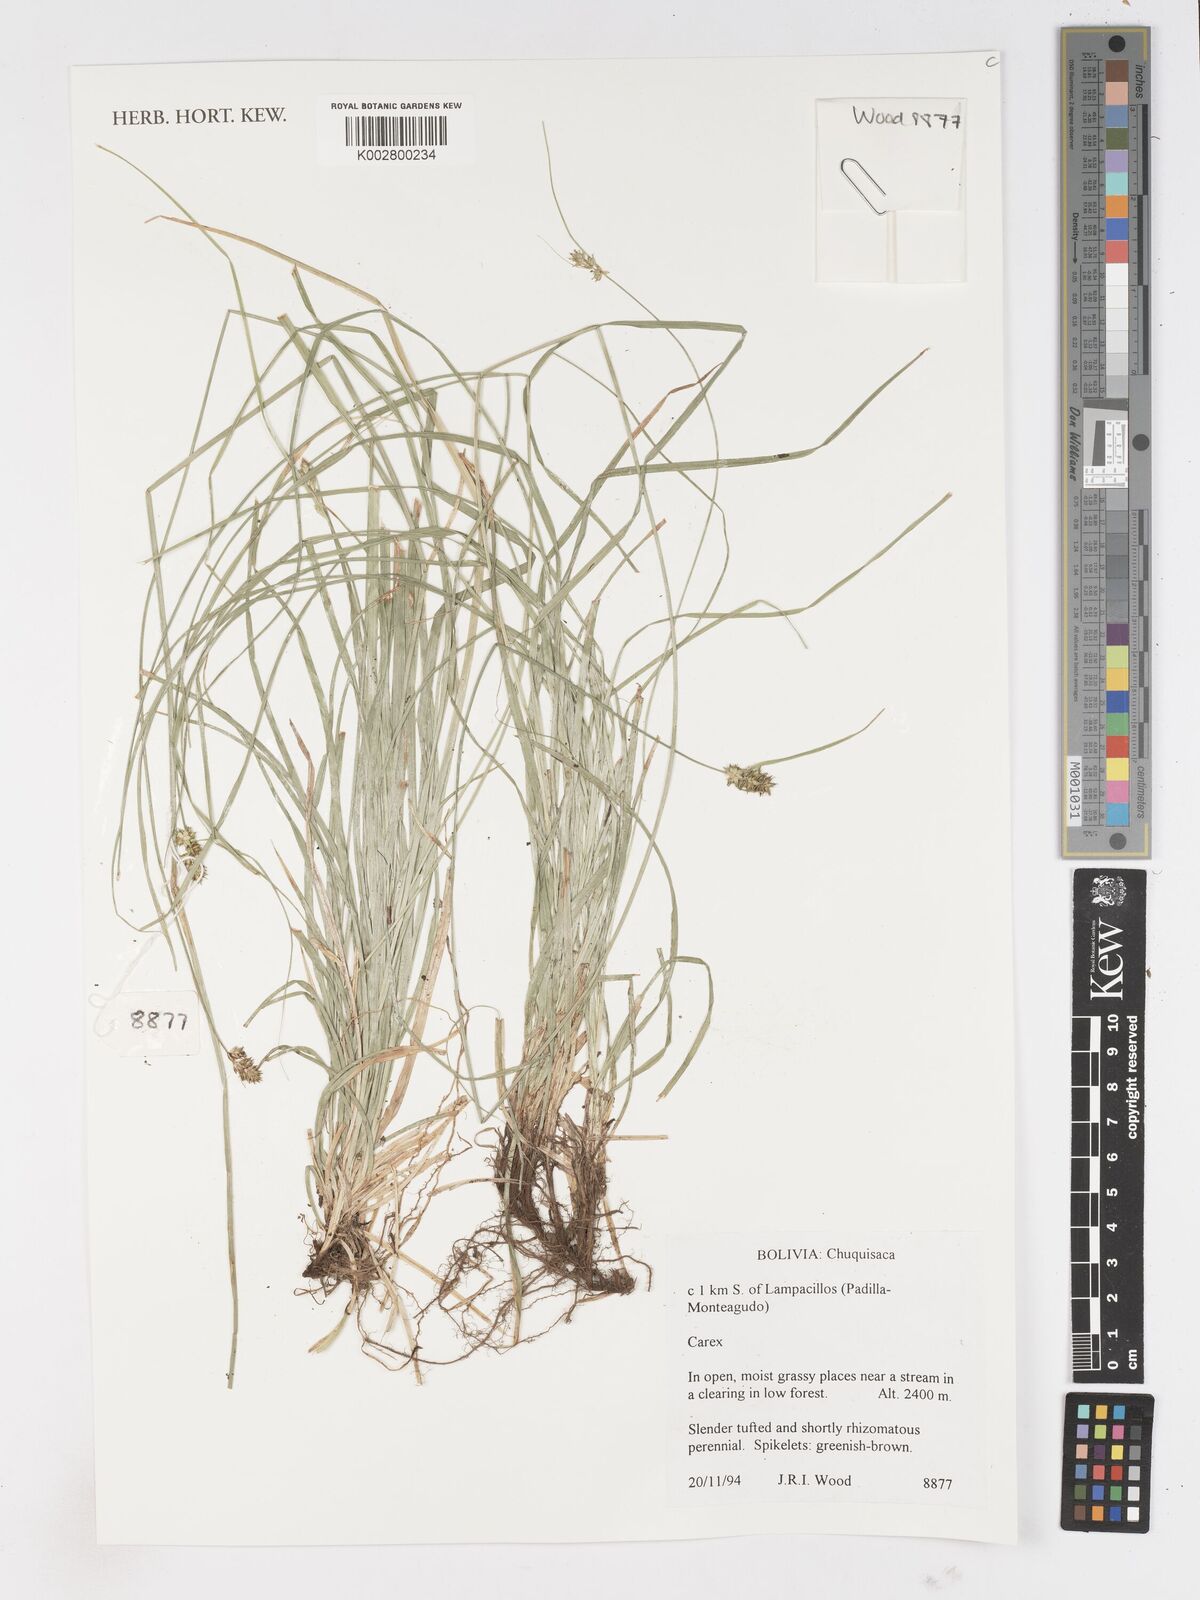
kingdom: Plantae
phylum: Tracheophyta
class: Liliopsida
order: Poales
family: Cyperaceae
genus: Carex
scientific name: Carex
